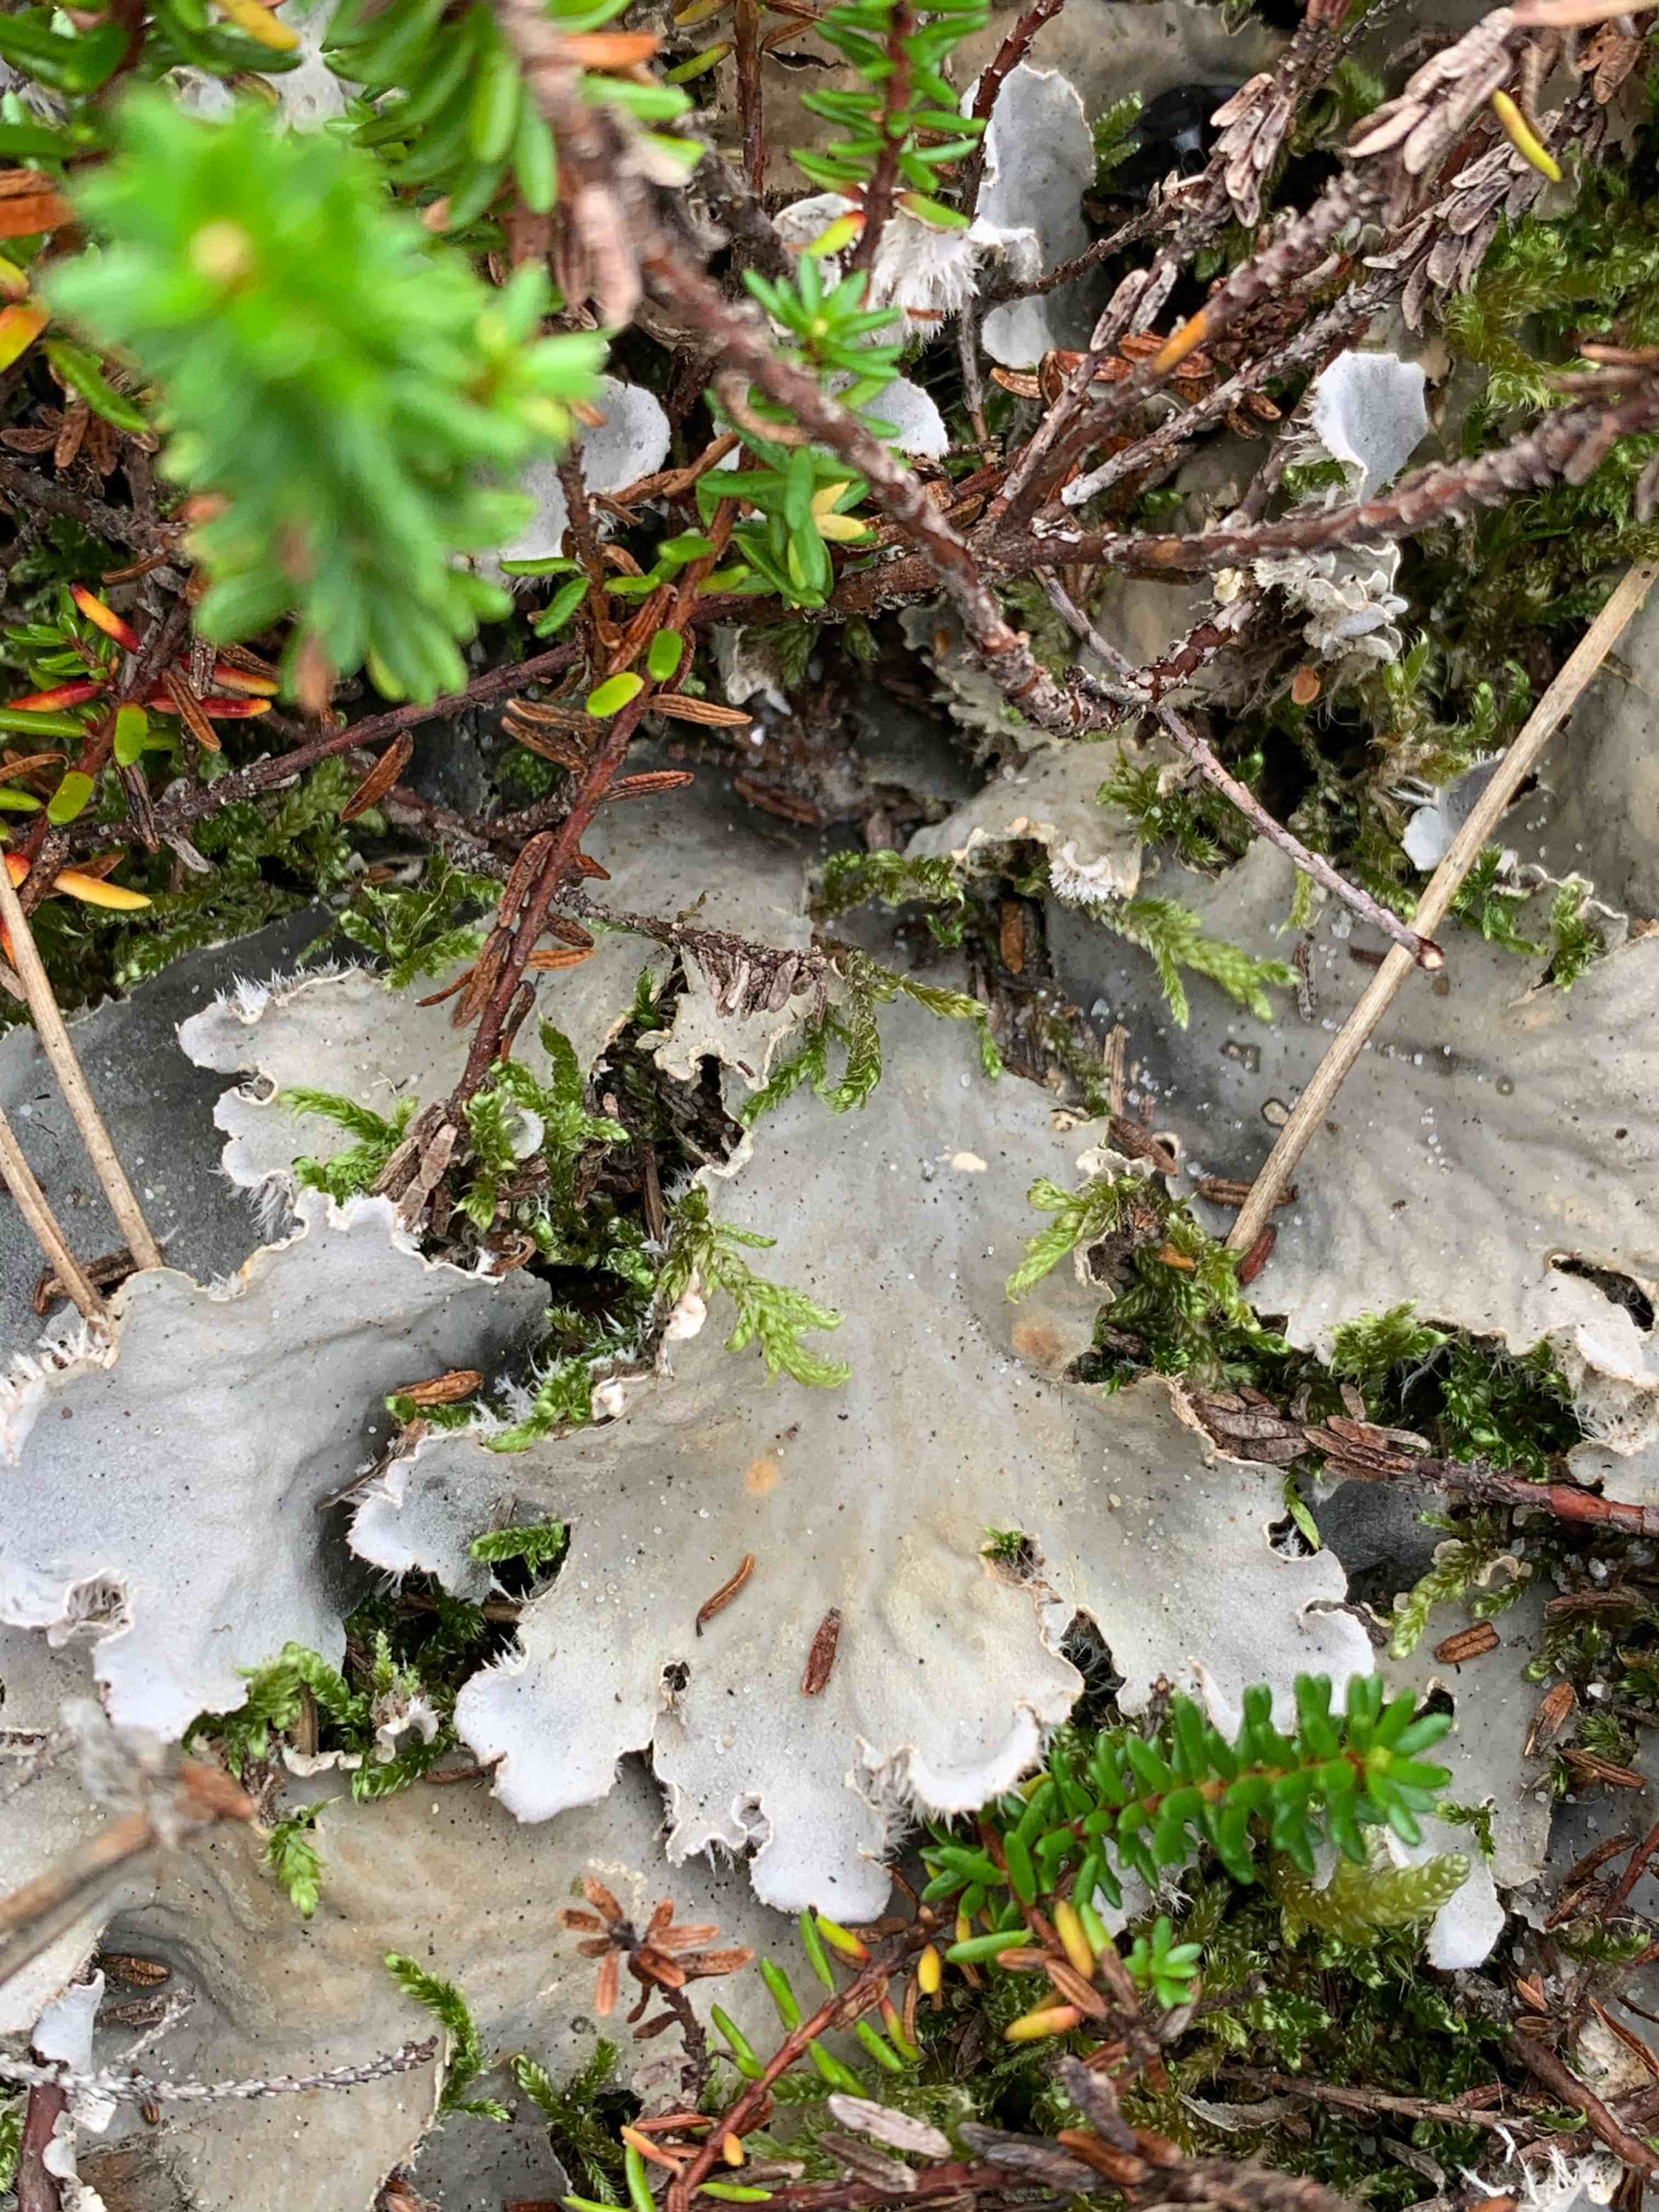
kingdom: Fungi
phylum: Ascomycota
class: Lecanoromycetes
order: Peltigerales
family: Peltigeraceae
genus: Peltigera
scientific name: Peltigera canina
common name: hunde-skjoldlav
